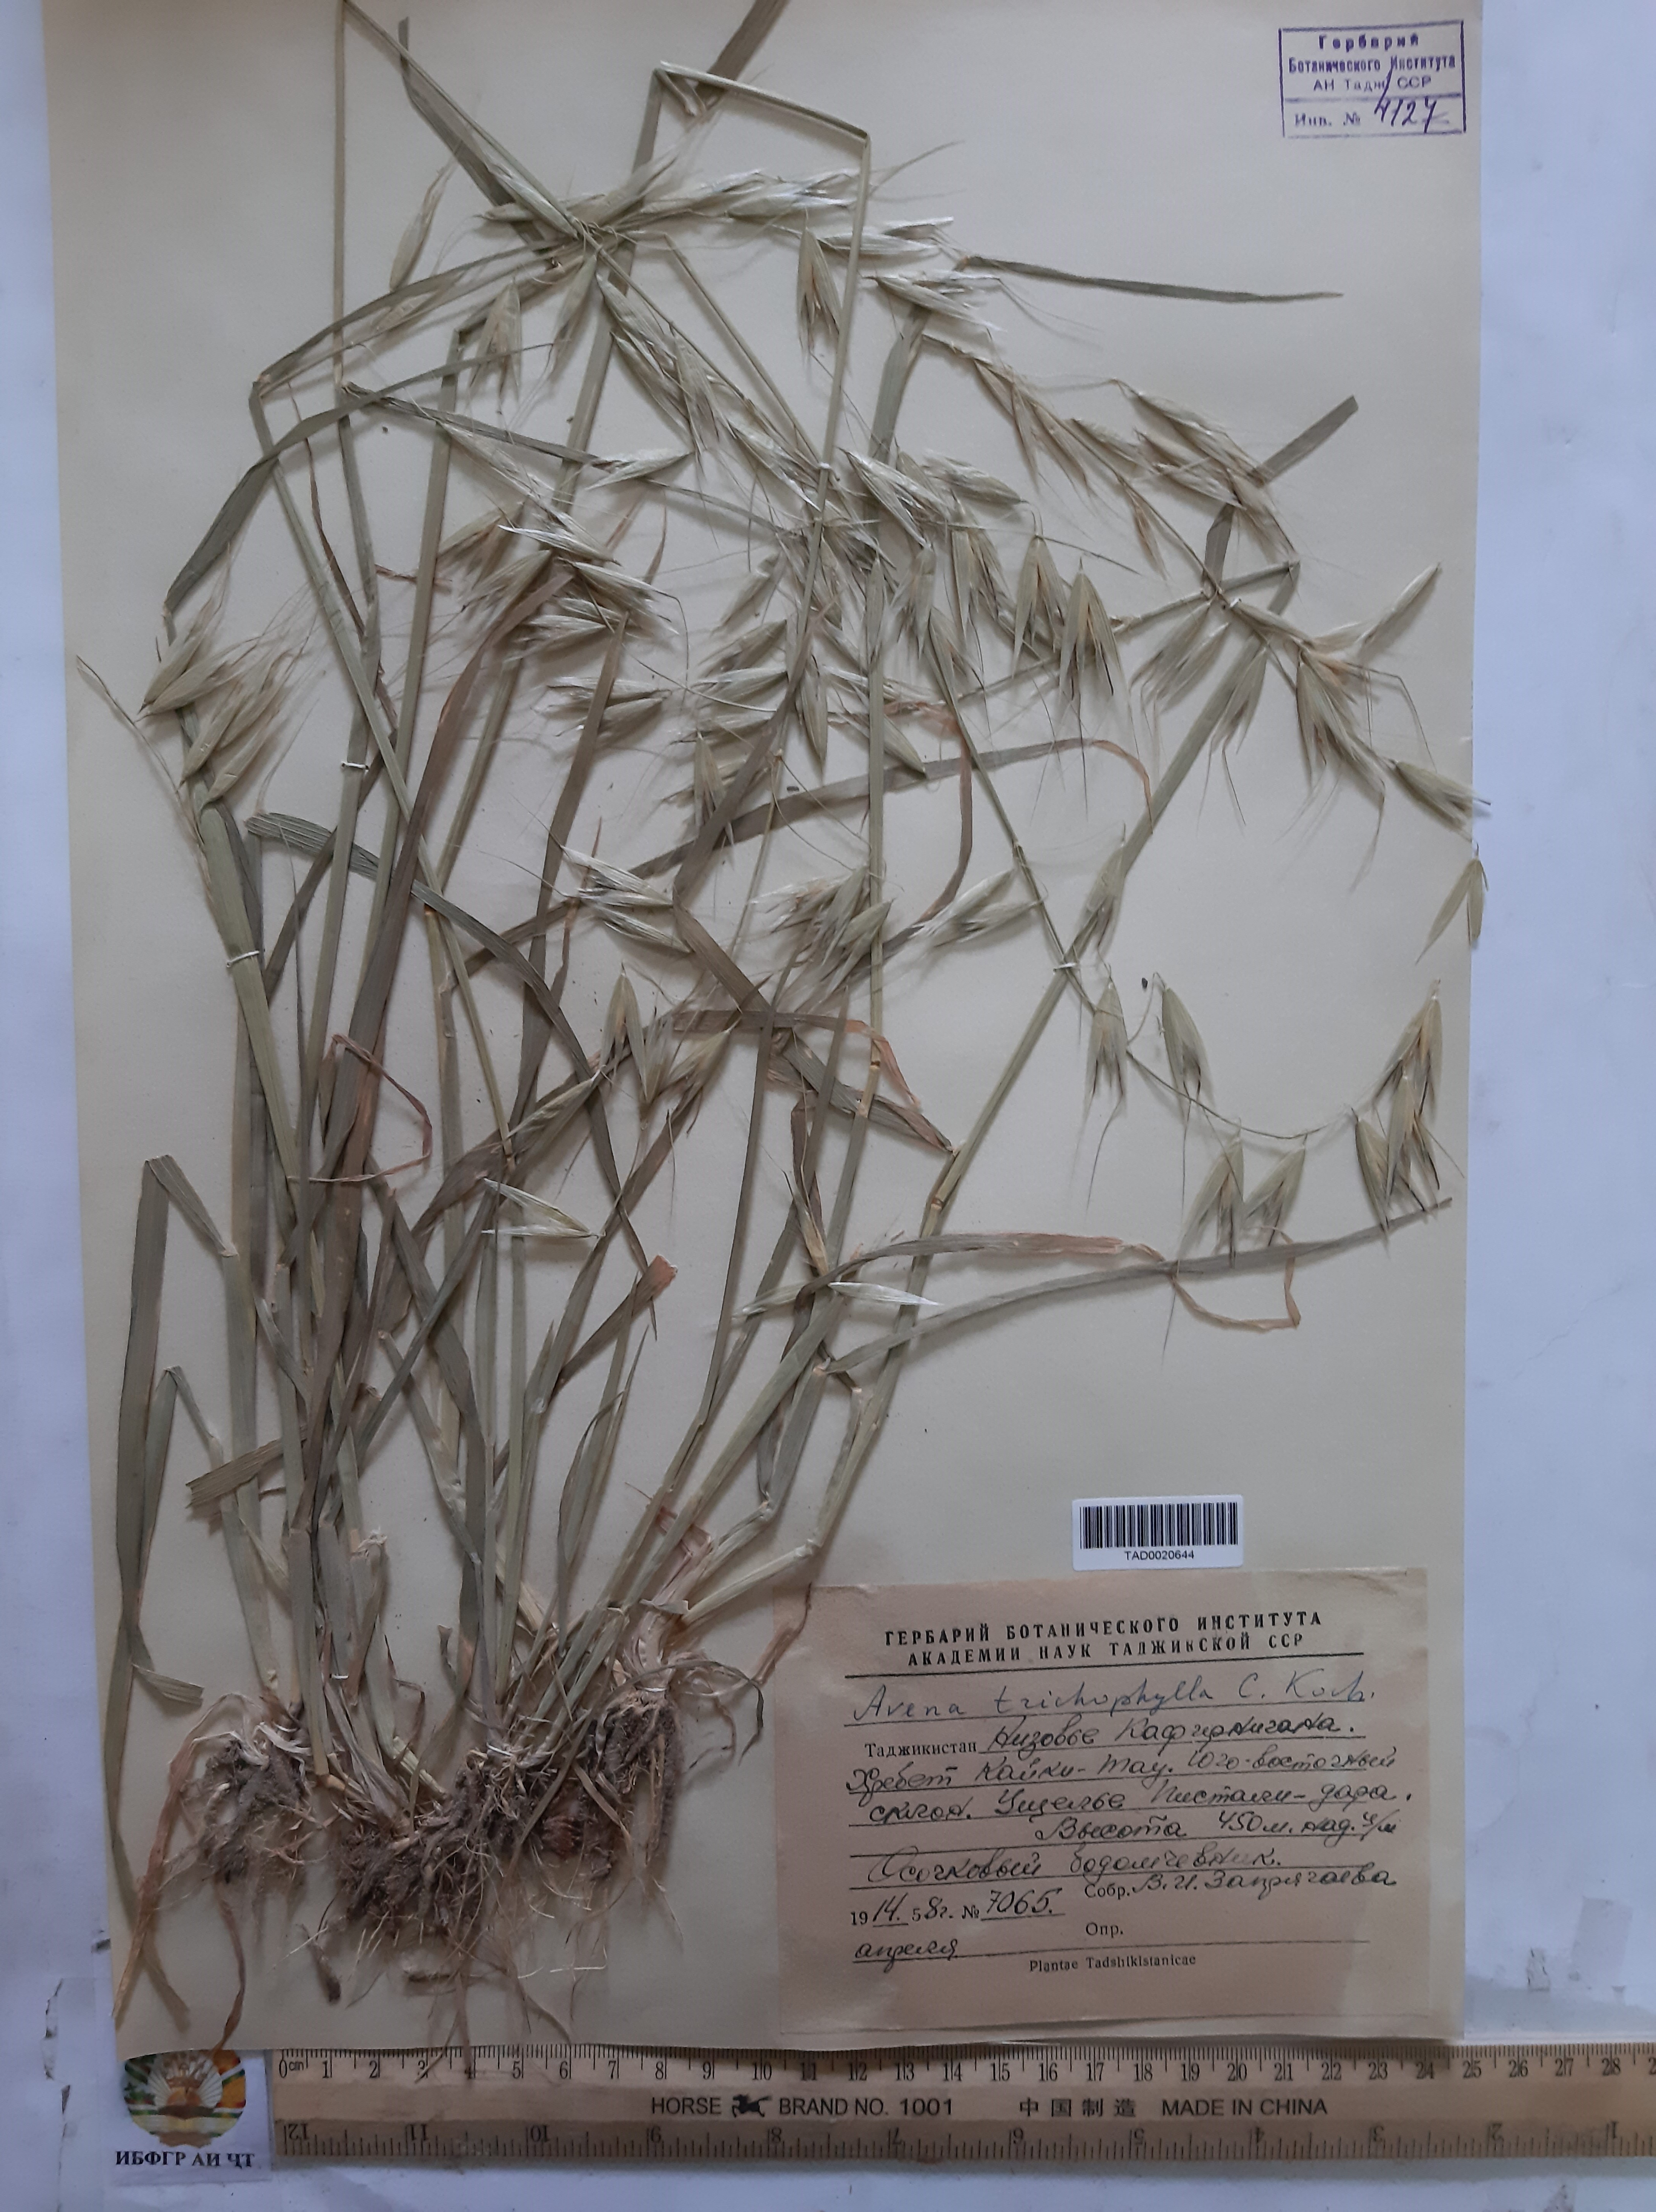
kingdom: Plantae
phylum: Tracheophyta
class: Liliopsida
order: Poales
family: Poaceae
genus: Avena
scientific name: Avena sterilis
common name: Animated oat
